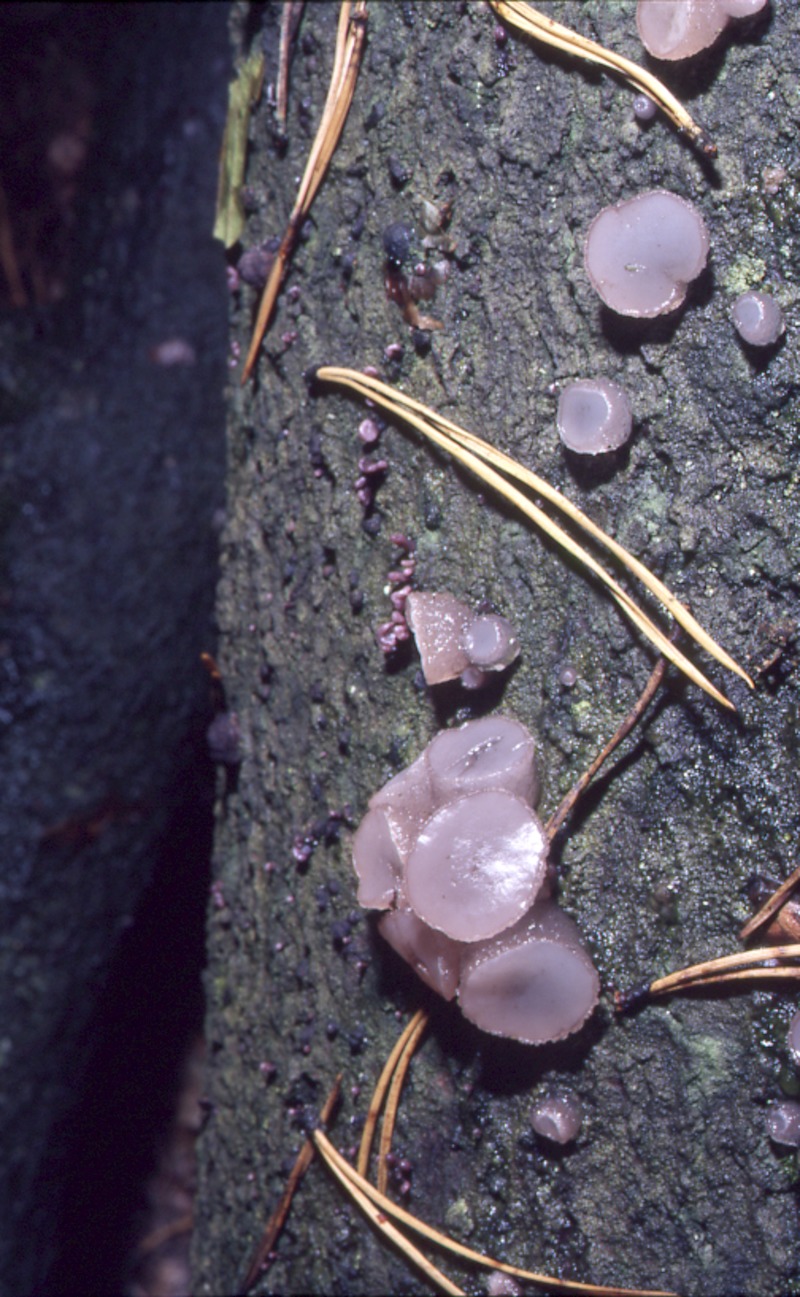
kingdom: Fungi
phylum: Ascomycota
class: Leotiomycetes
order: Helotiales
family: Gelatinodiscaceae
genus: Neobulgaria
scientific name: Neobulgaria pura
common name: Beech jelly-disc
